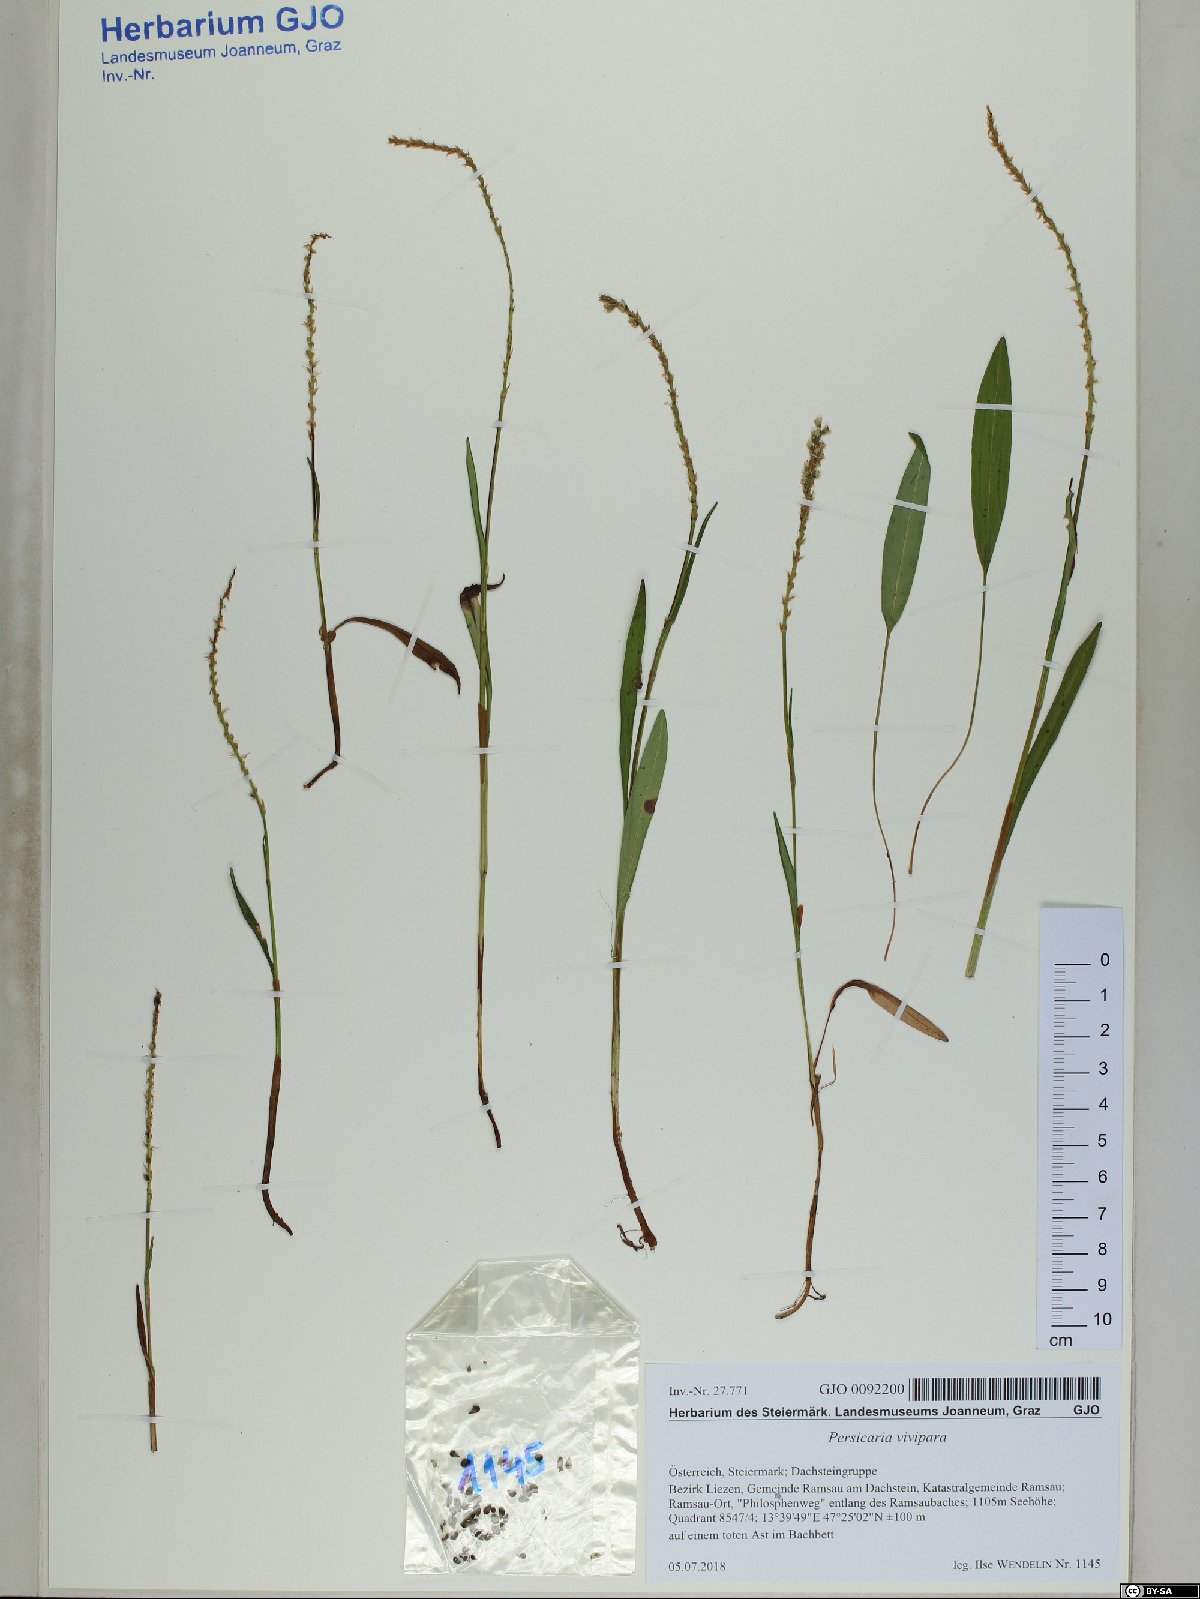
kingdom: Plantae
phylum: Tracheophyta
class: Magnoliopsida
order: Caryophyllales
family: Polygonaceae
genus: Bistorta
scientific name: Bistorta vivipara
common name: Alpine bistort
